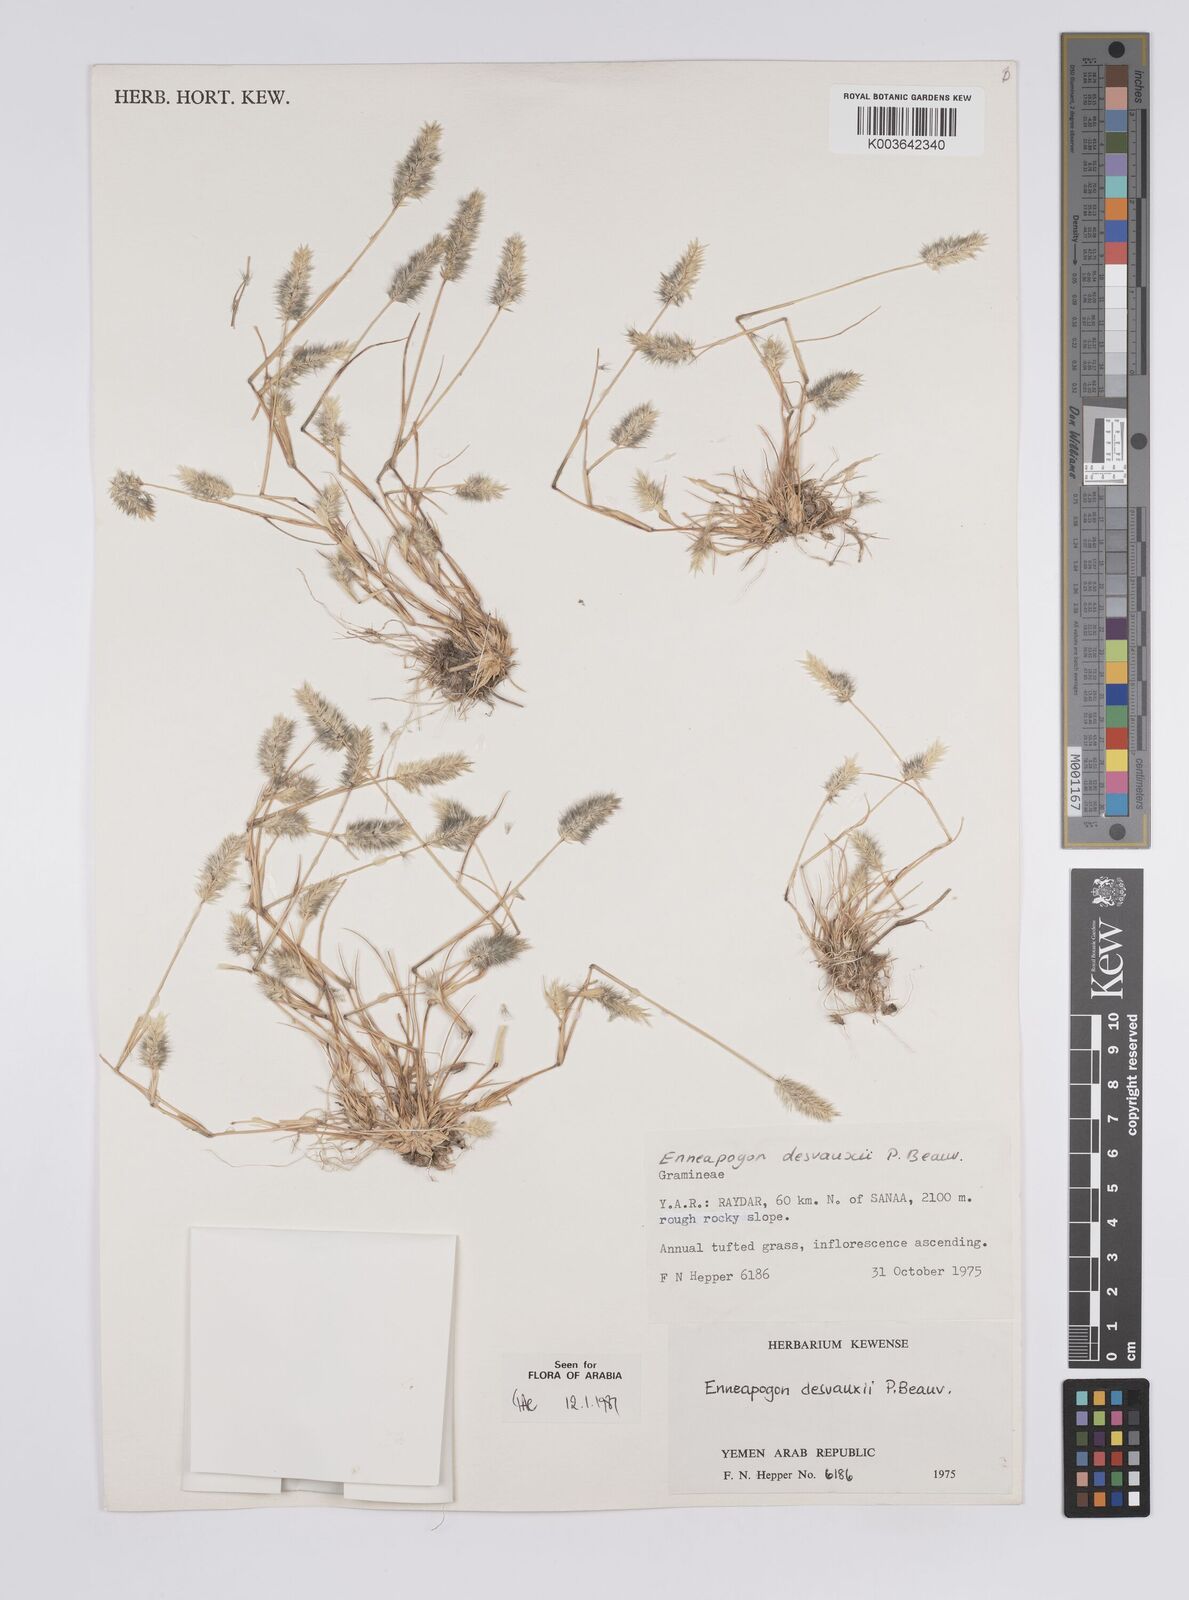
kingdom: Plantae
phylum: Tracheophyta
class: Liliopsida
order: Poales
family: Poaceae
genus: Enneapogon
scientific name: Enneapogon desvauxii
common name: Feather pappus grass
